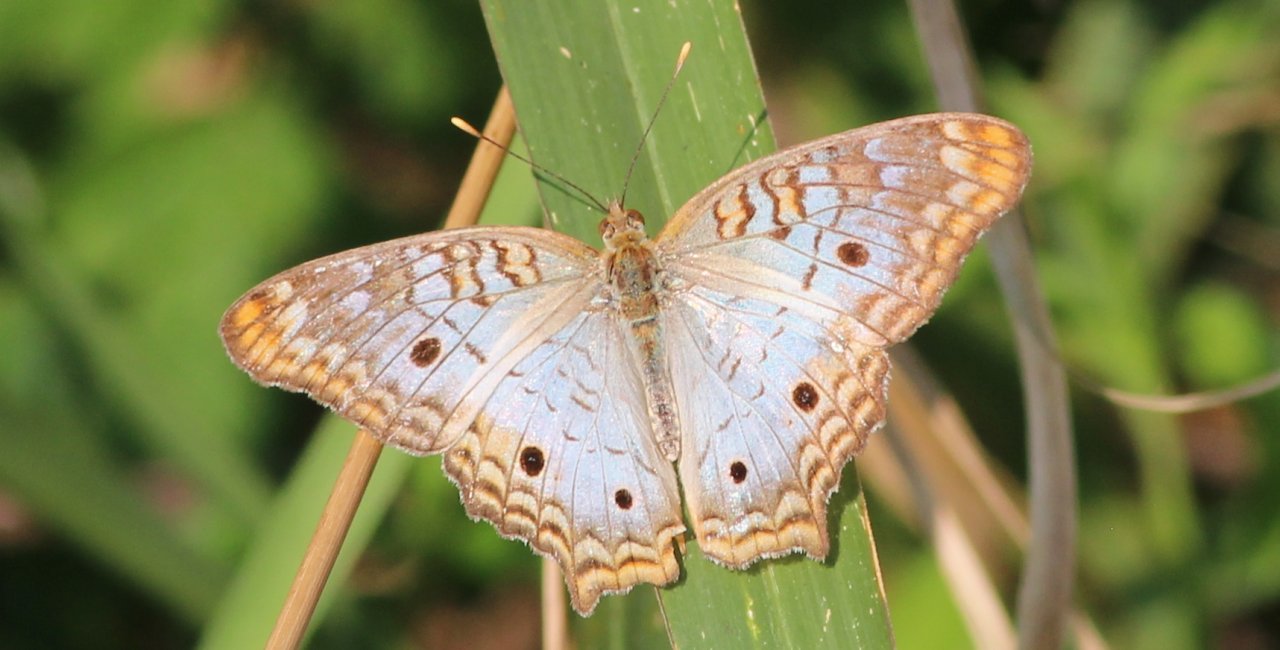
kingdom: Animalia
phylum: Arthropoda
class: Insecta
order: Lepidoptera
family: Nymphalidae
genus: Anartia
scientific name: Anartia jatrophae
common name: White Peacock
